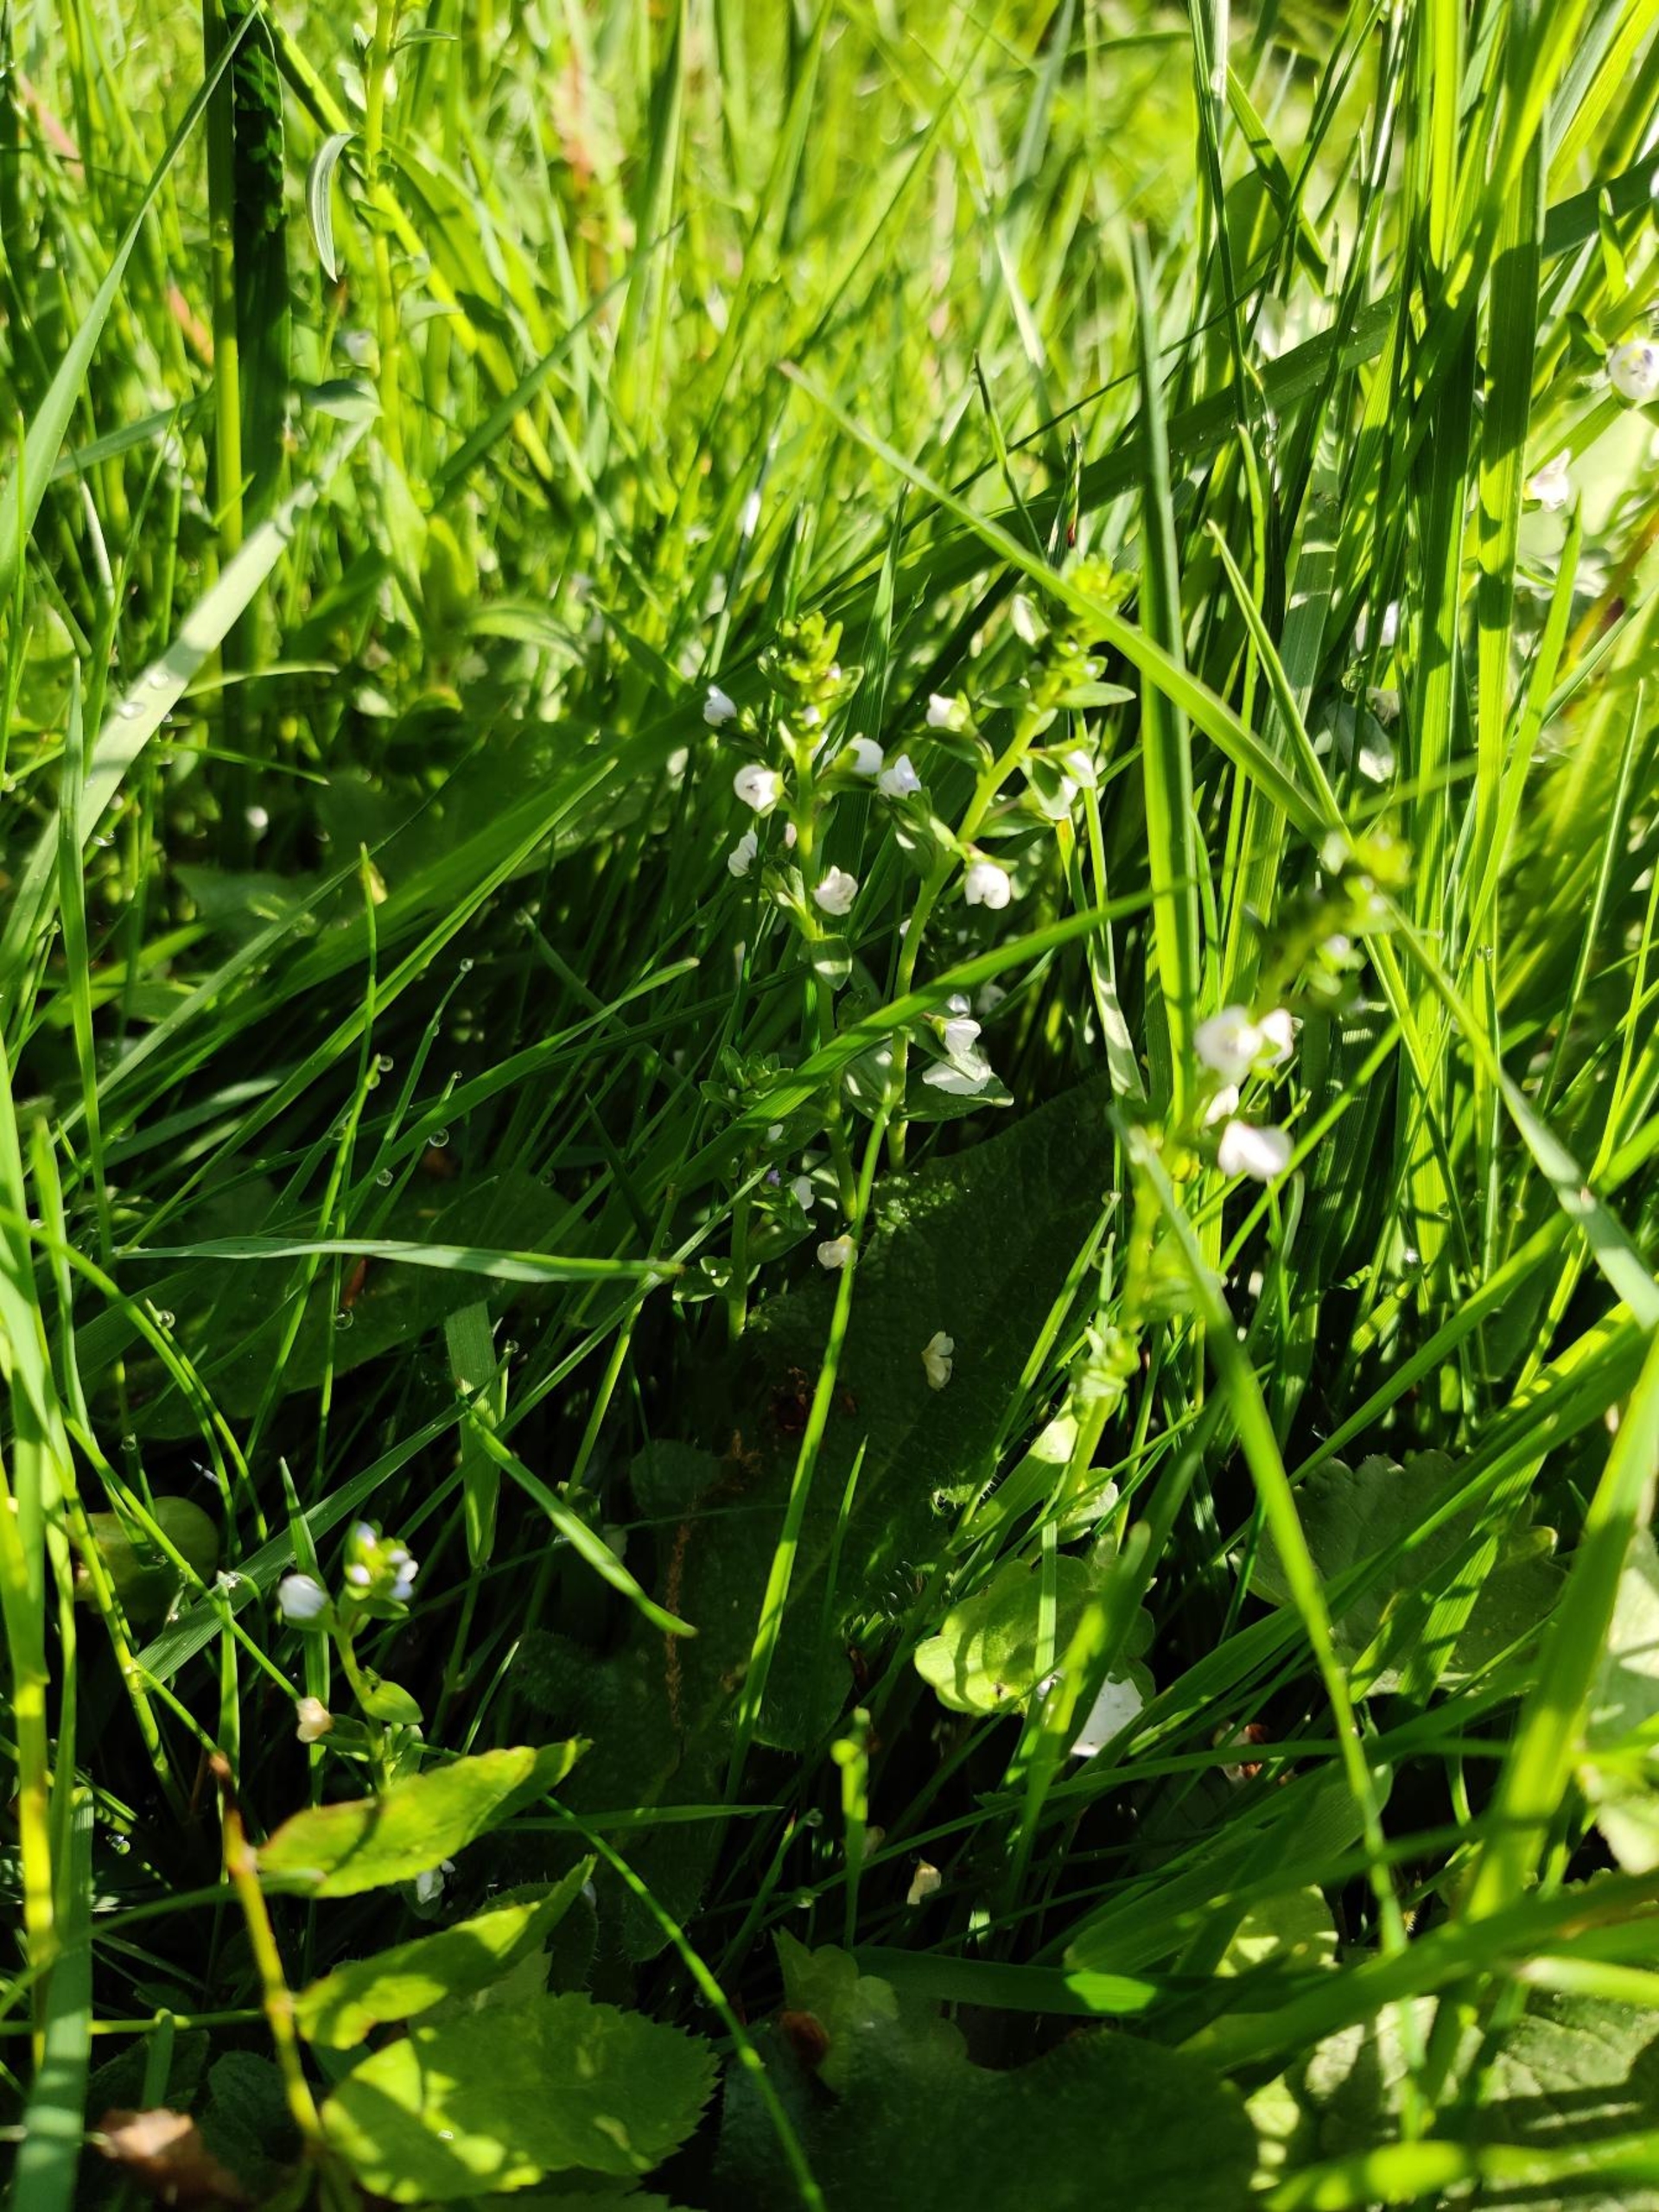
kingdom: Plantae
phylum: Tracheophyta
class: Magnoliopsida
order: Lamiales
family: Plantaginaceae
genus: Veronica
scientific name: Veronica serpyllifolia
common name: Glat ærenpris
